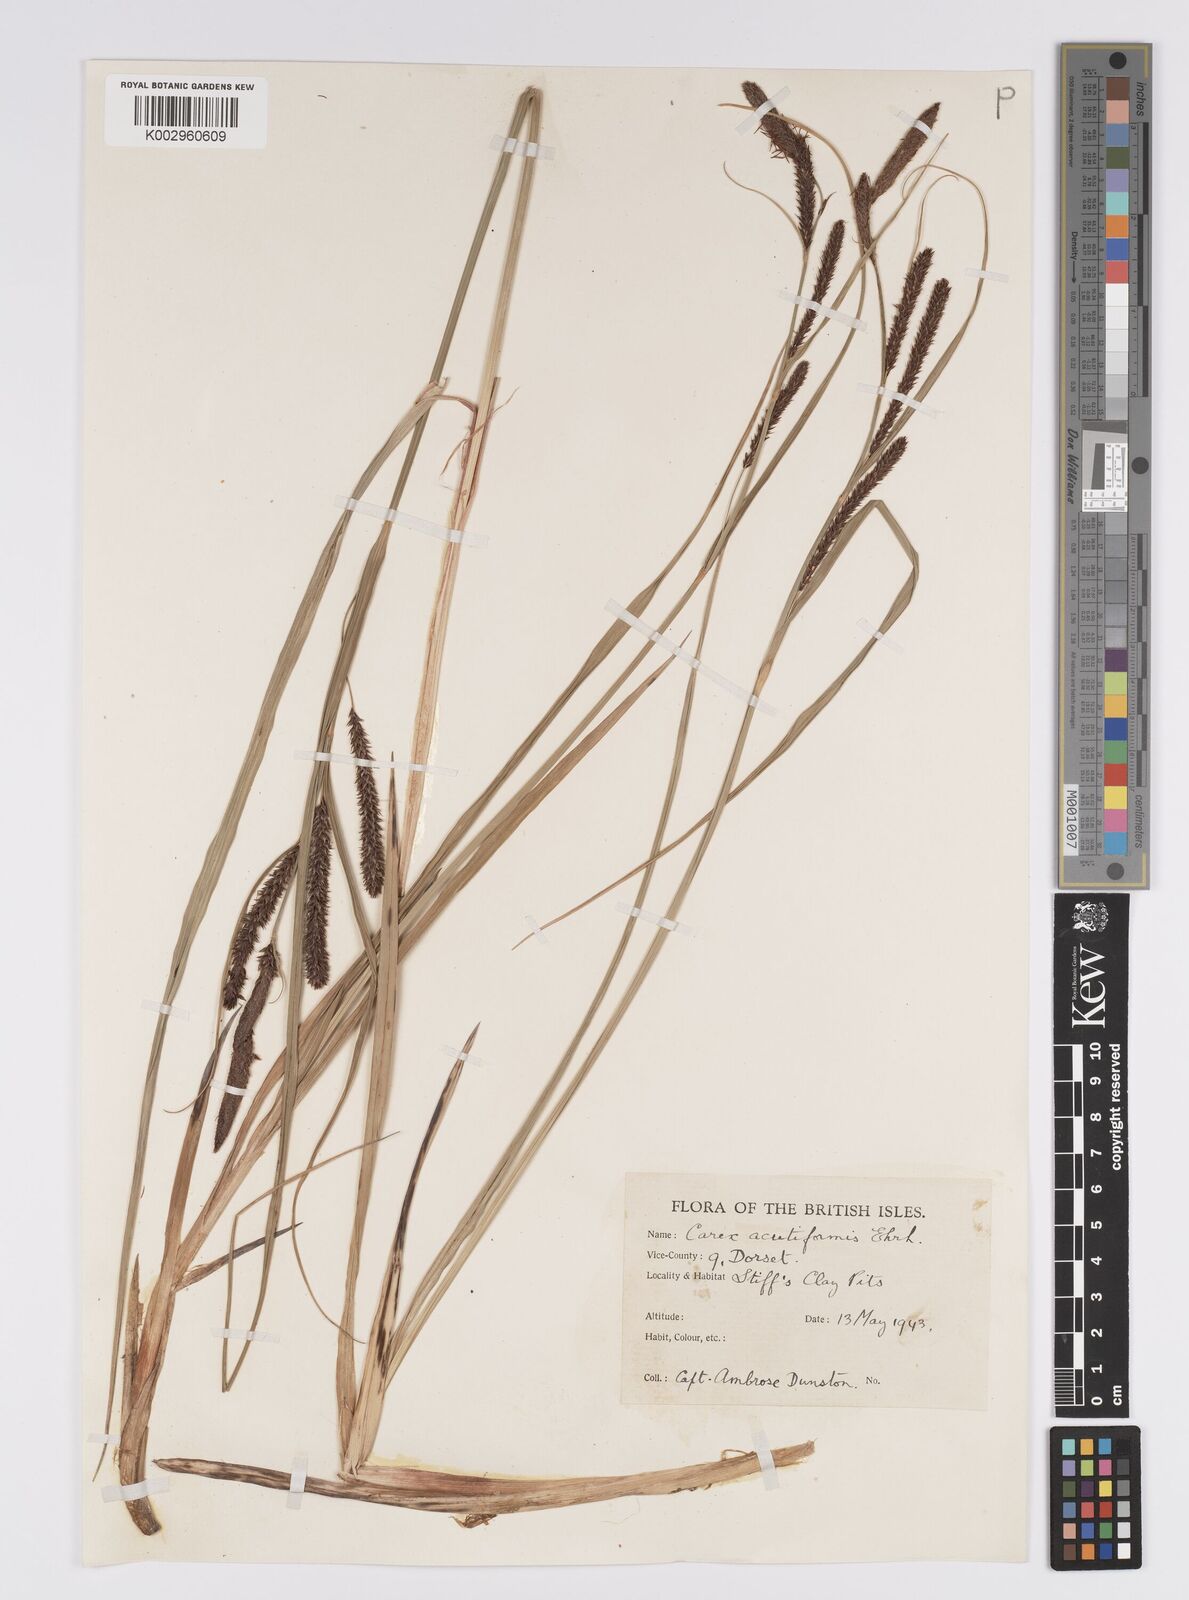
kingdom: Plantae
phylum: Tracheophyta
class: Liliopsida
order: Poales
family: Cyperaceae
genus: Carex
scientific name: Carex acutiformis
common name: Lesser pond-sedge
